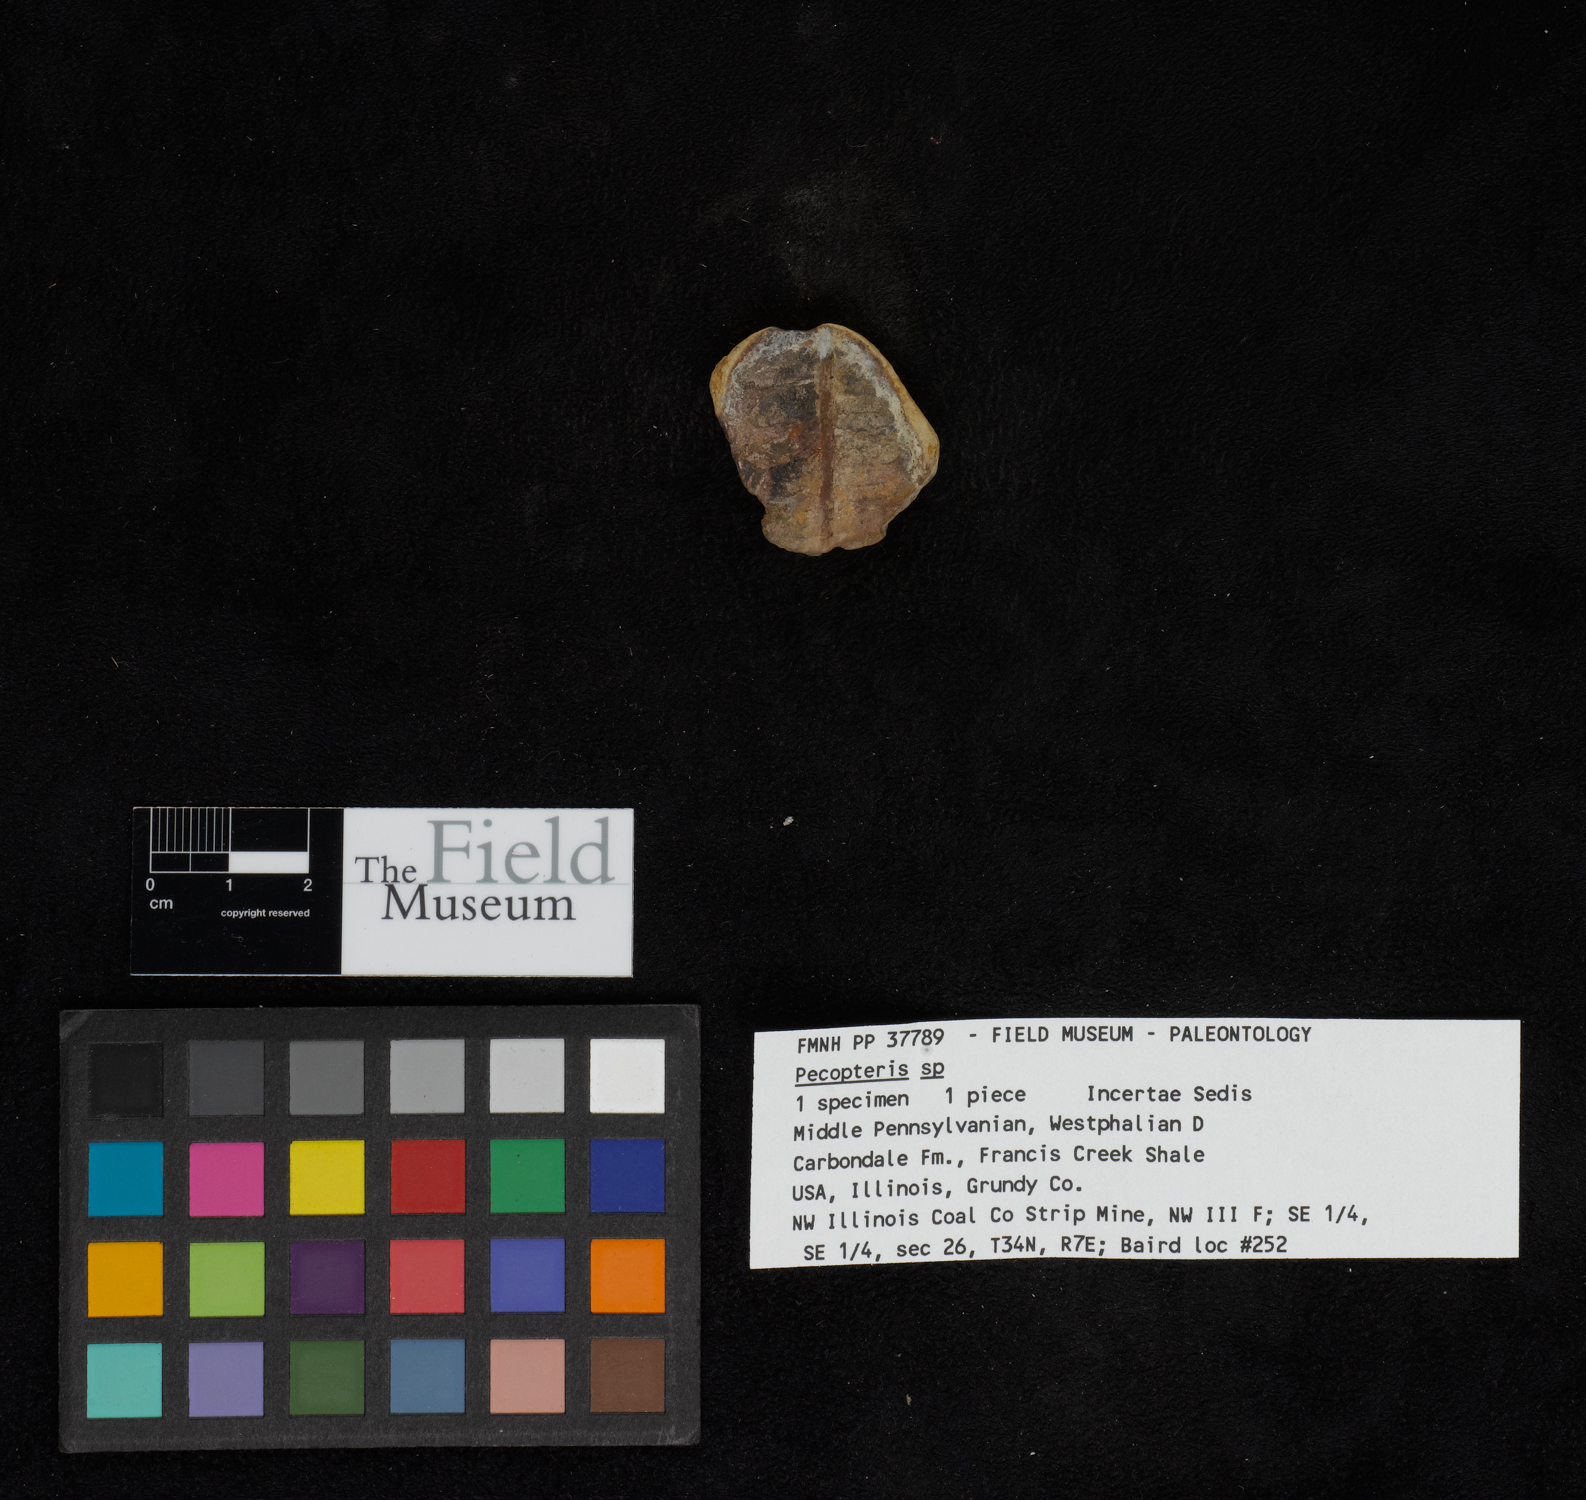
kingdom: Plantae
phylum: Tracheophyta
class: Polypodiopsida
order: Marattiales
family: Asterothecaceae
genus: Pecopteris
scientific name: Pecopteris
